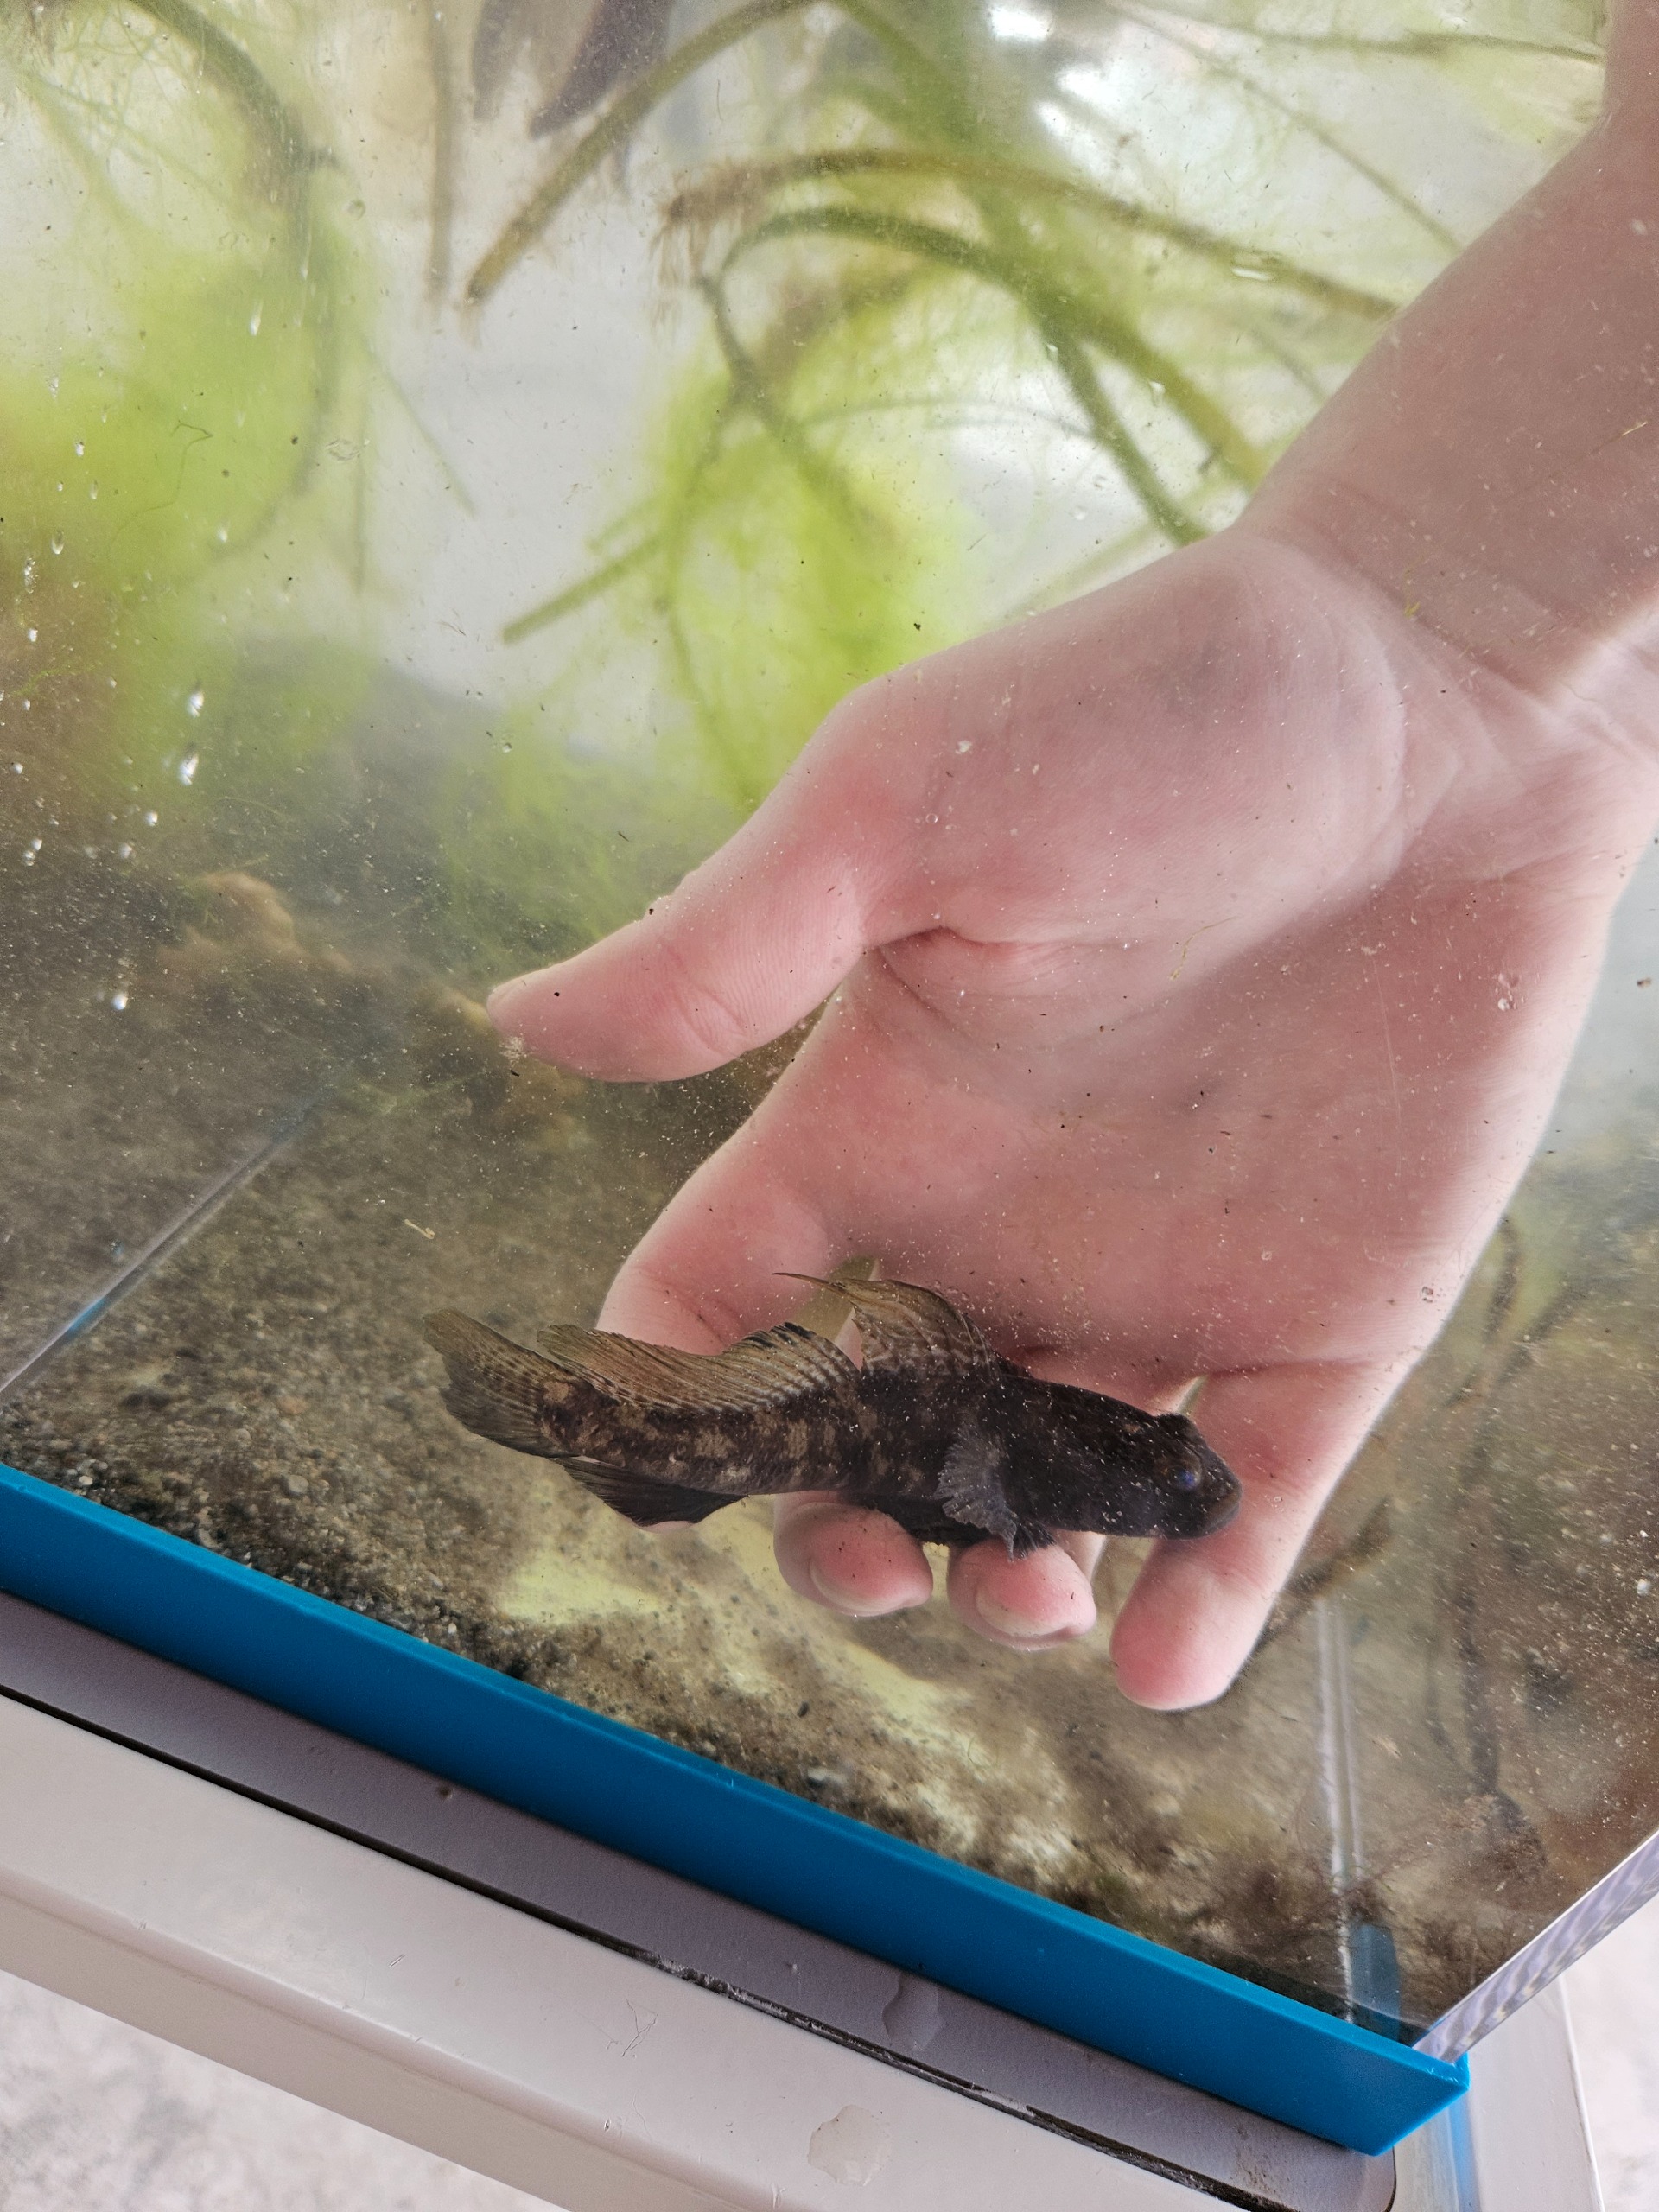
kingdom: Animalia
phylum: Chordata
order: Perciformes
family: Gobiidae
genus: Gobius
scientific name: Gobius niger
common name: Sortkutling
